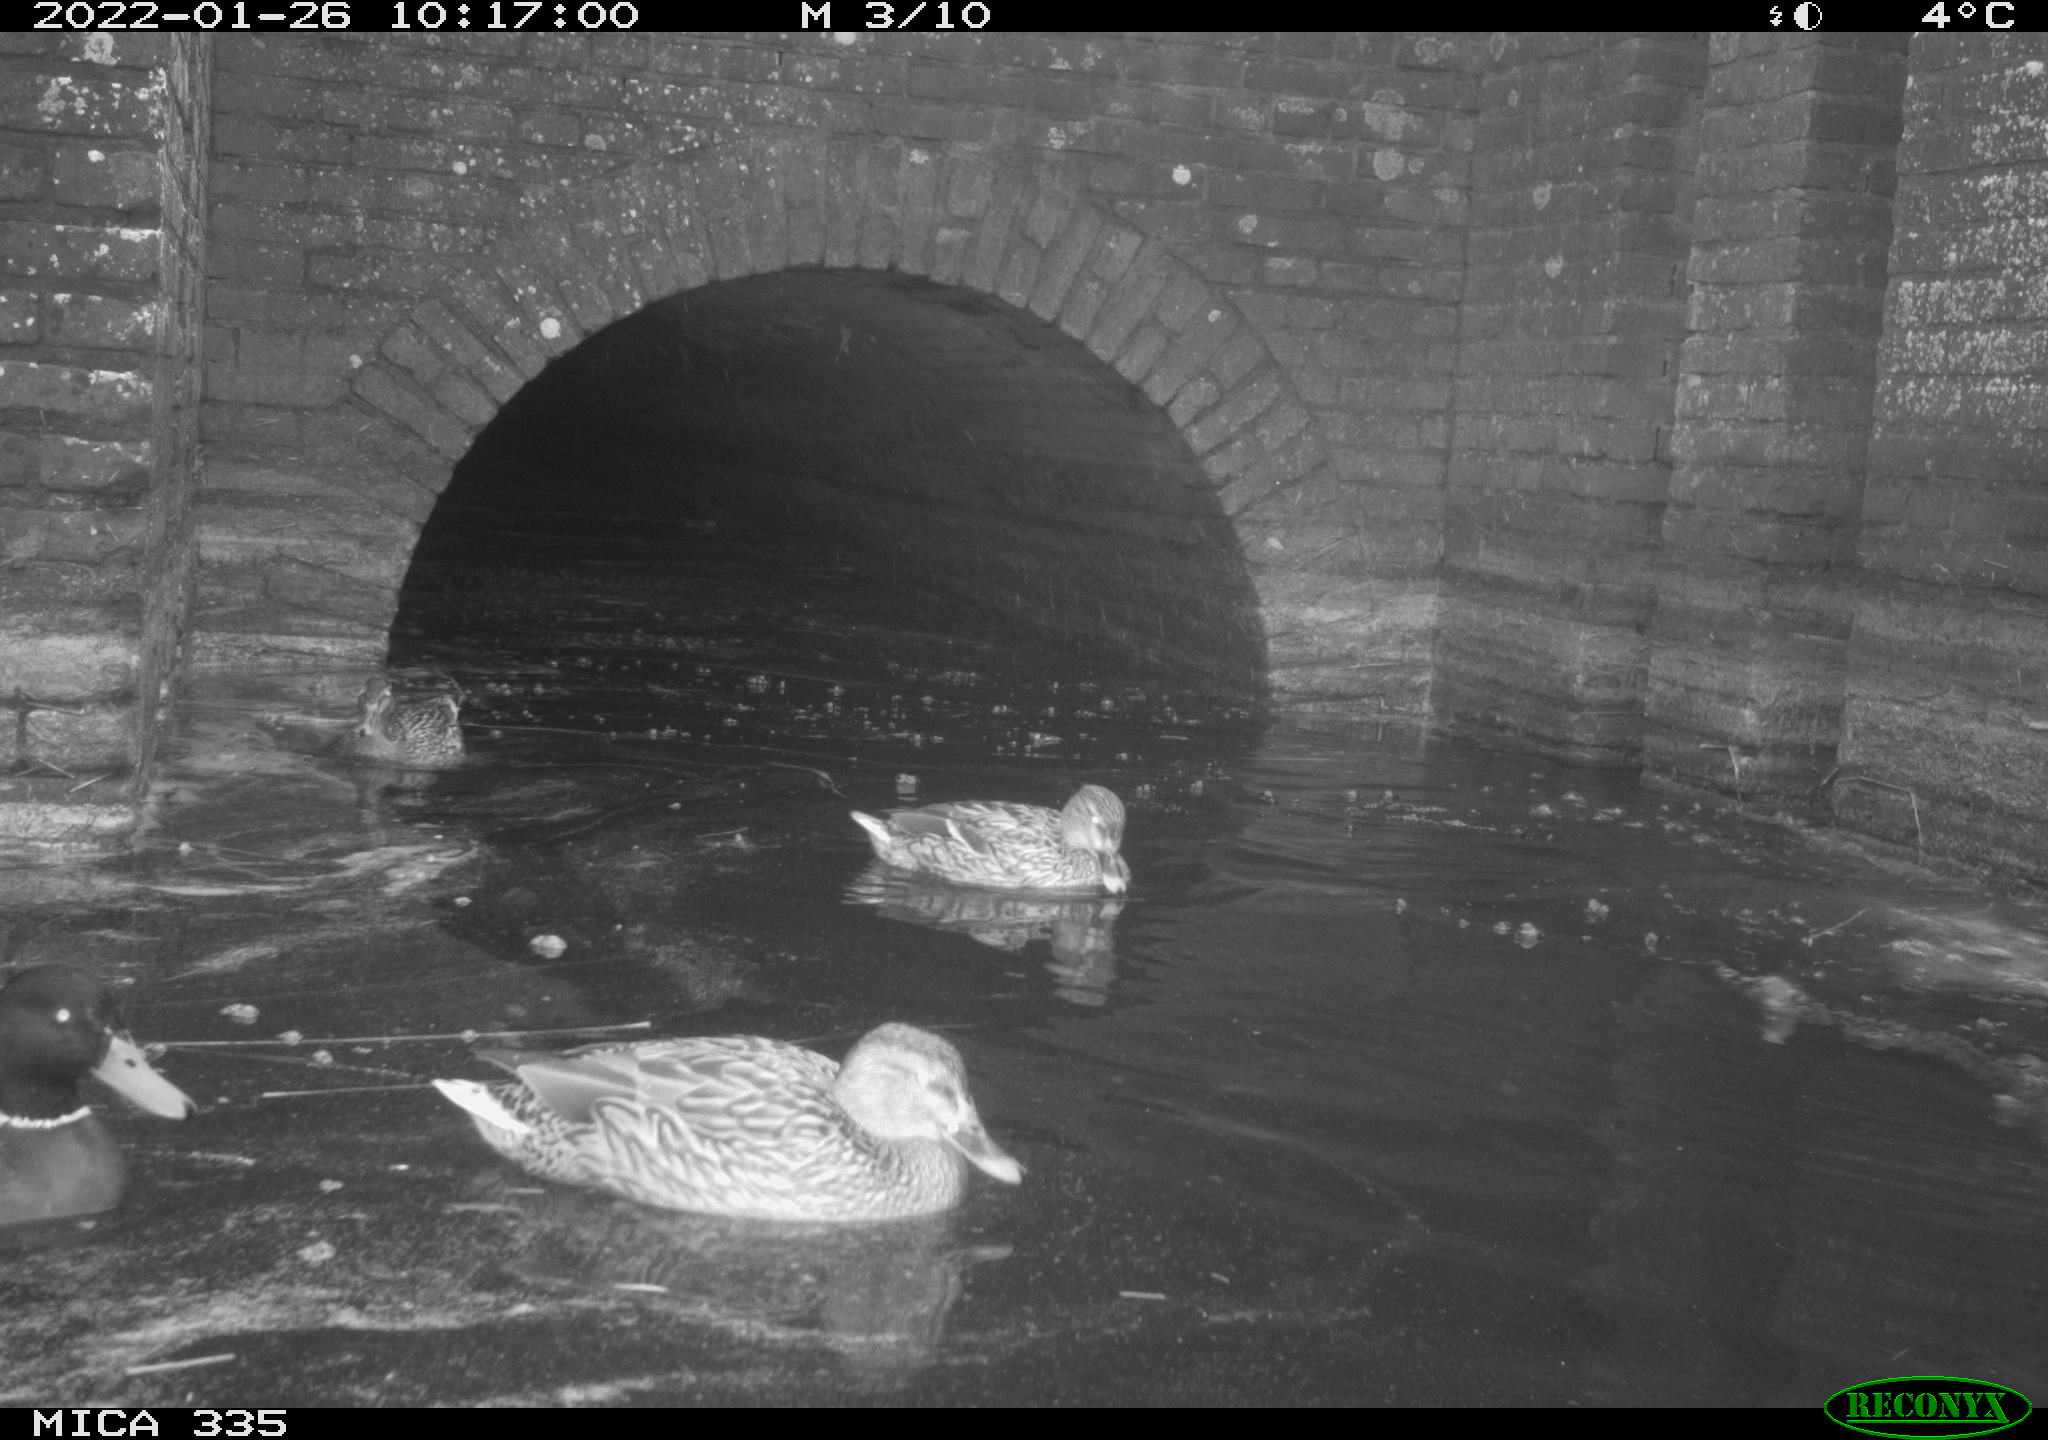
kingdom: Animalia
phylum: Chordata
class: Aves
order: Anseriformes
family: Anatidae
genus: Anas
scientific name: Anas platyrhynchos
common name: Mallard
